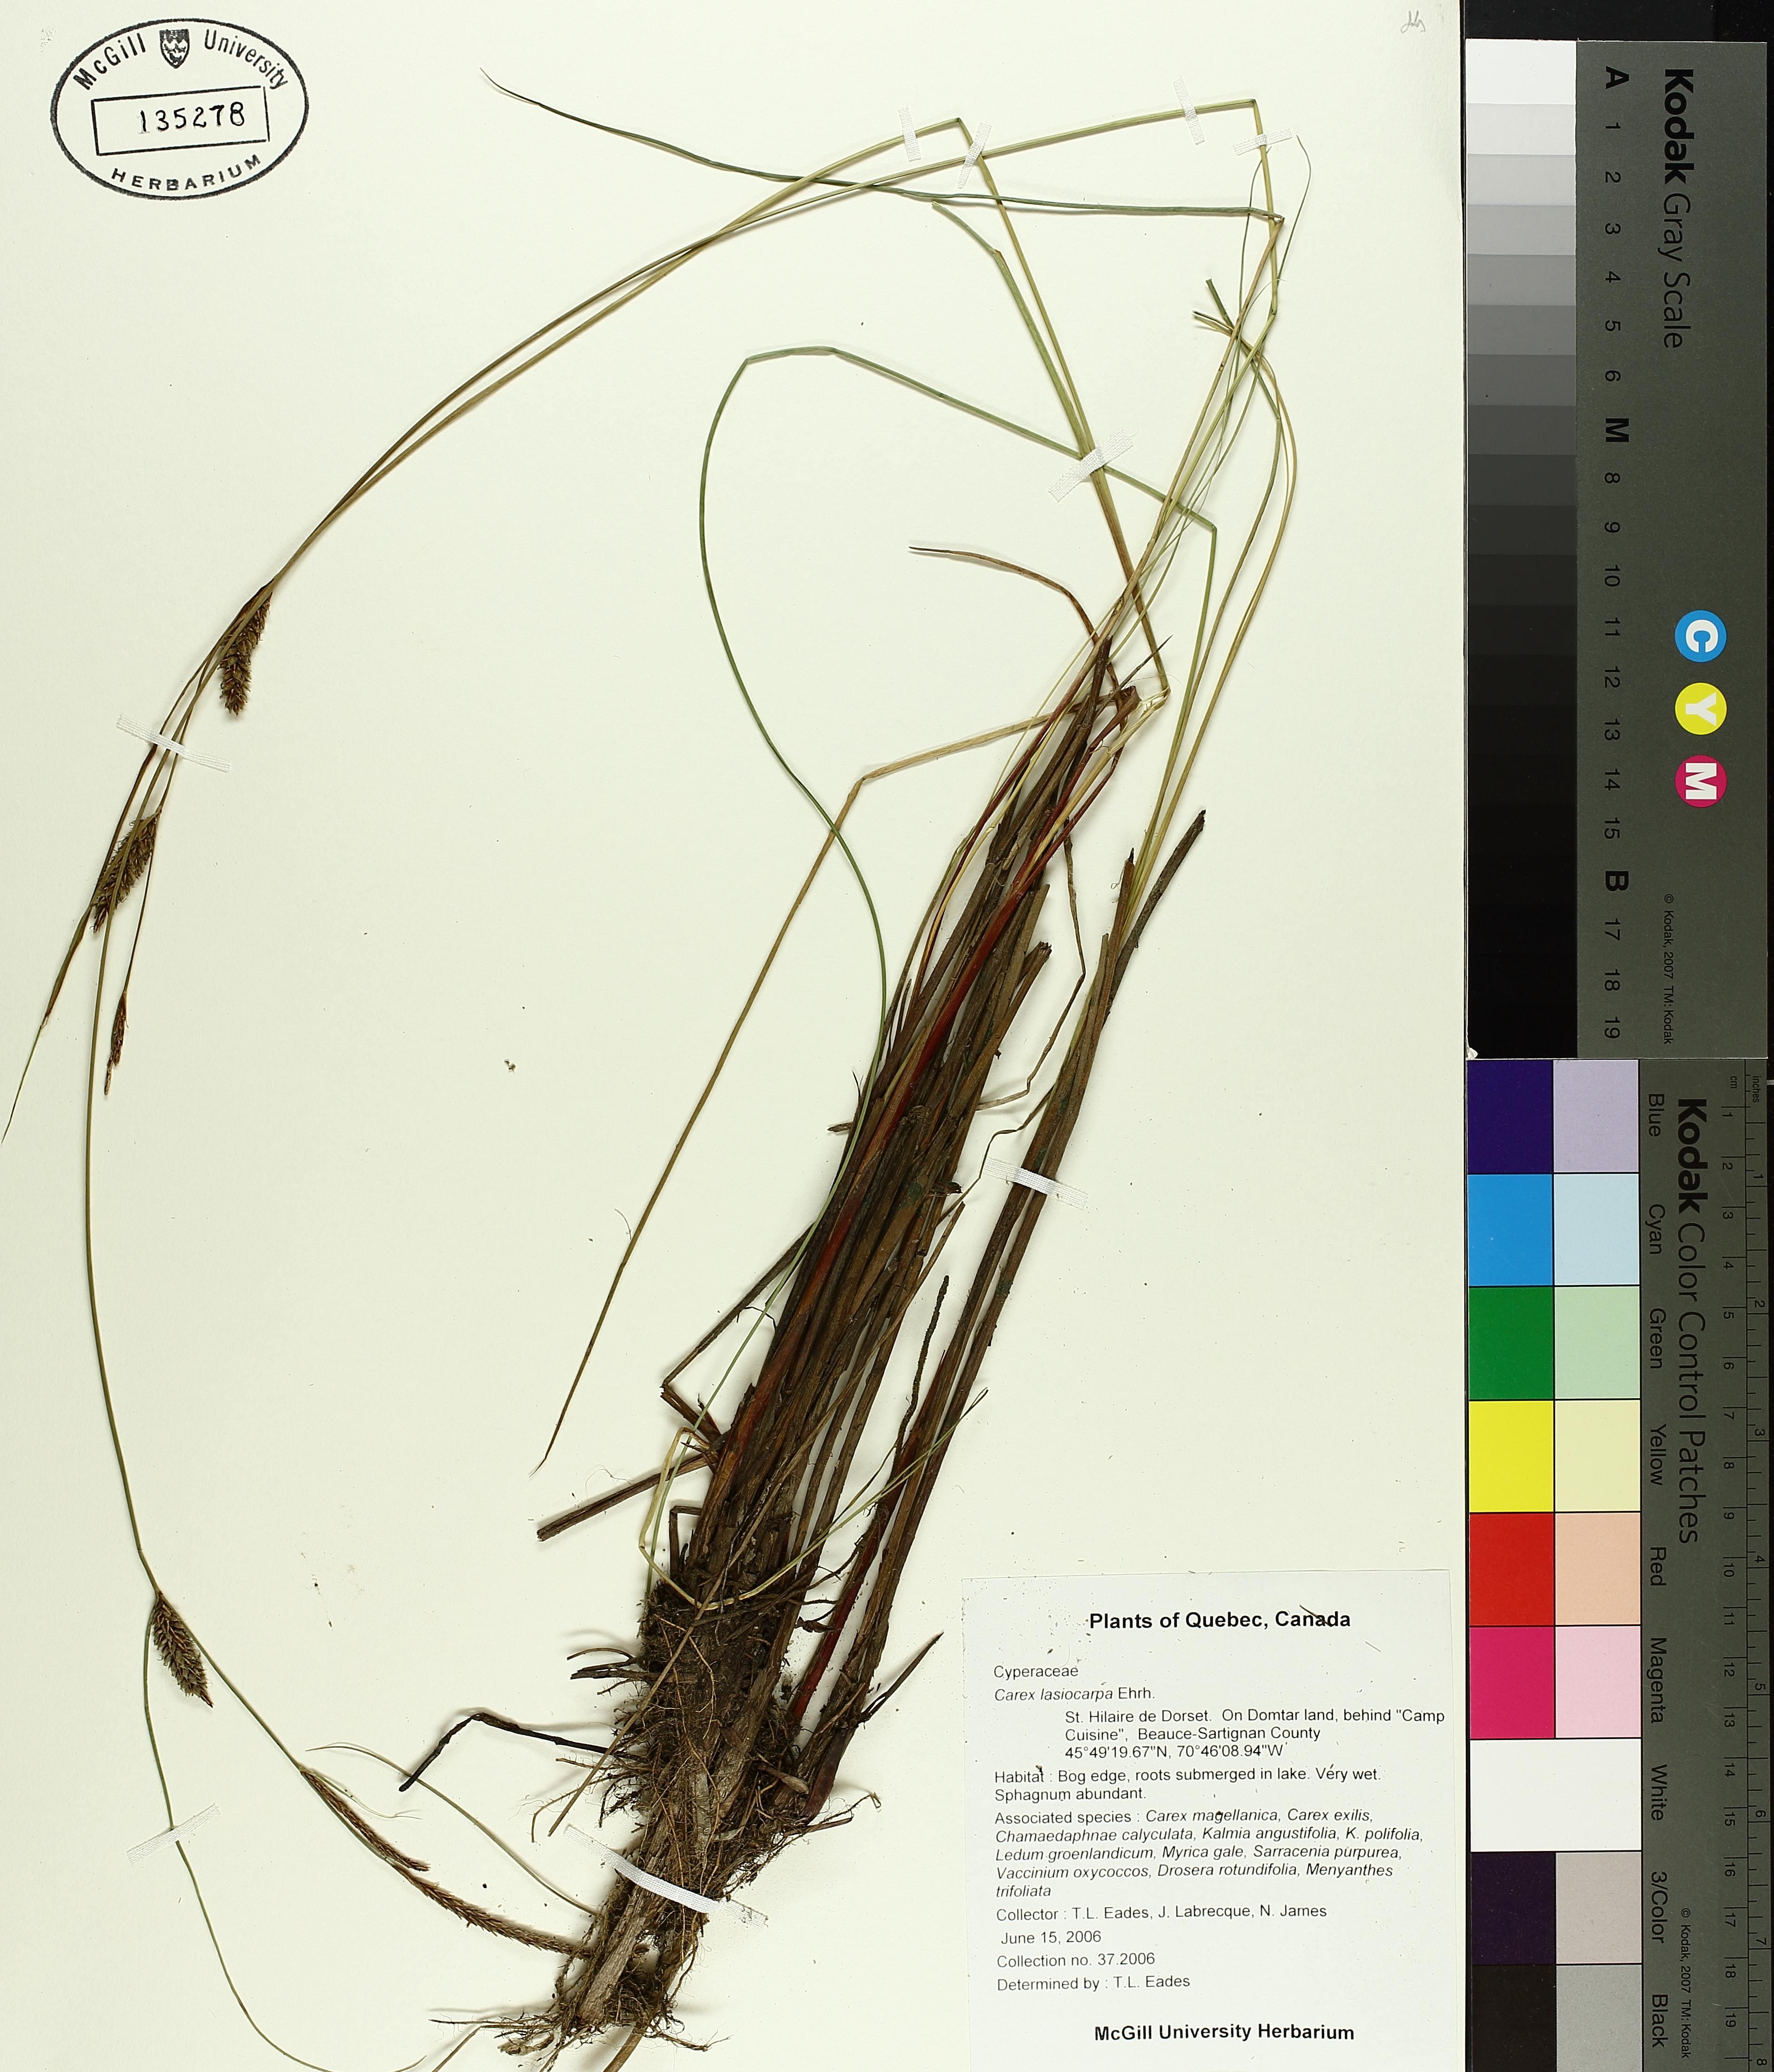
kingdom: Plantae
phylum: Tracheophyta
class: Liliopsida
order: Poales
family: Cyperaceae
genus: Carex
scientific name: Carex lasiocarpa
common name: Slender sedge
